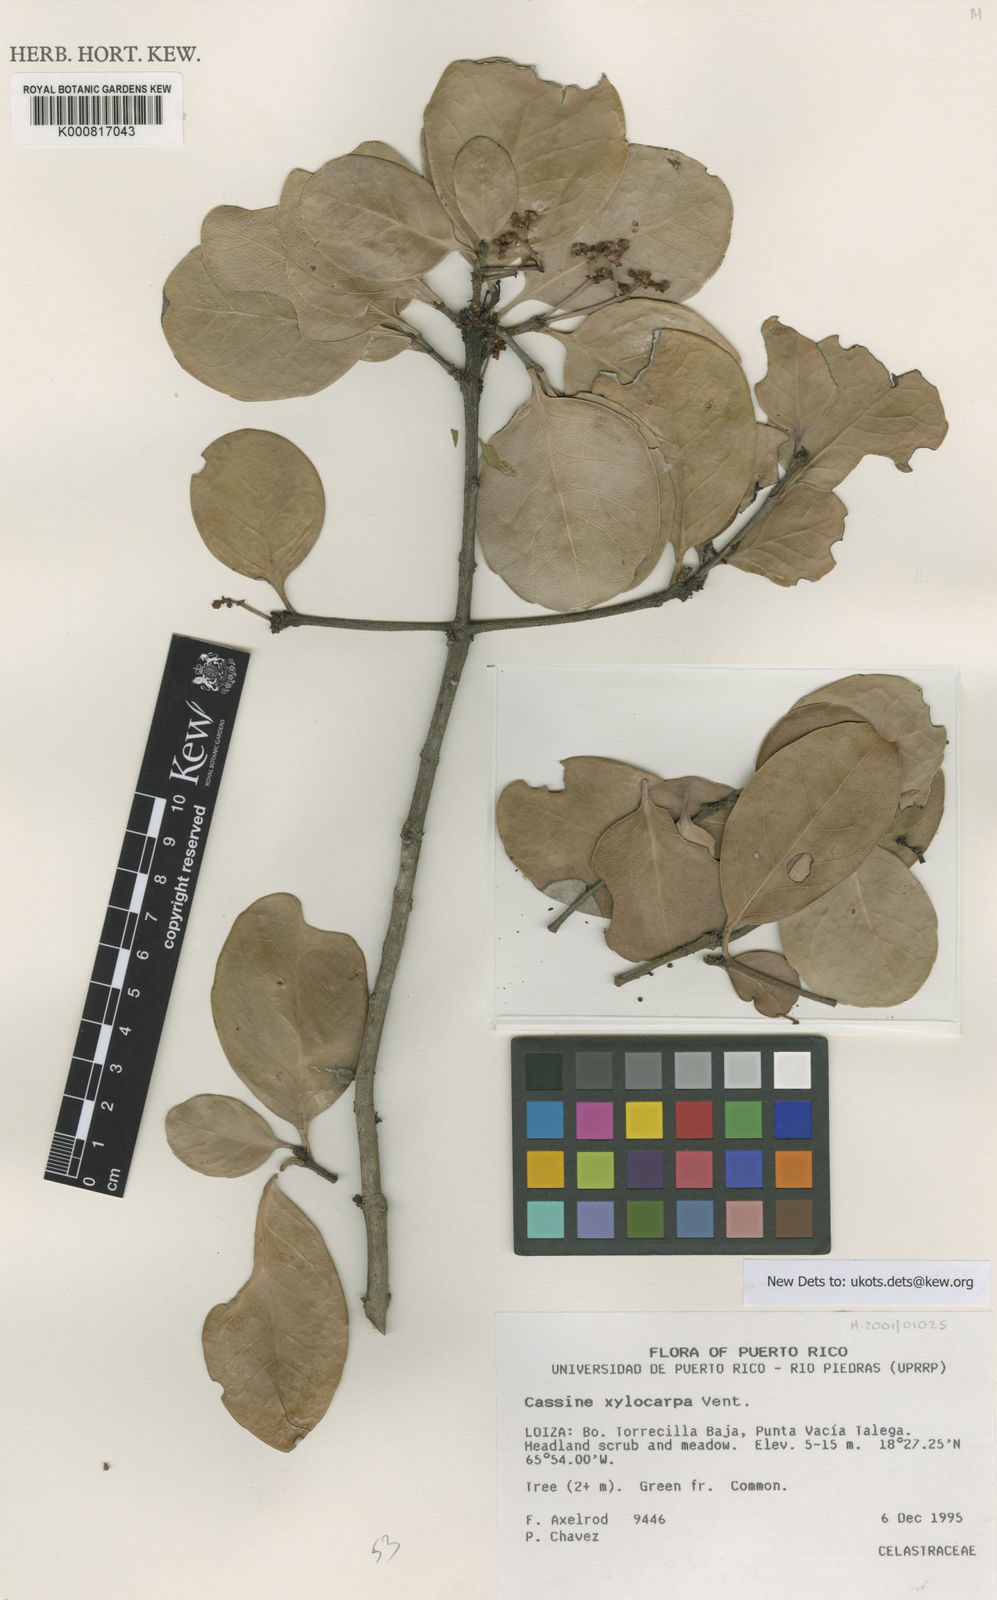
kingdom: Plantae
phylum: Tracheophyta
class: Magnoliopsida
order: Celastrales
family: Celastraceae
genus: Elaeodendron
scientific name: Elaeodendron xylocarpum
